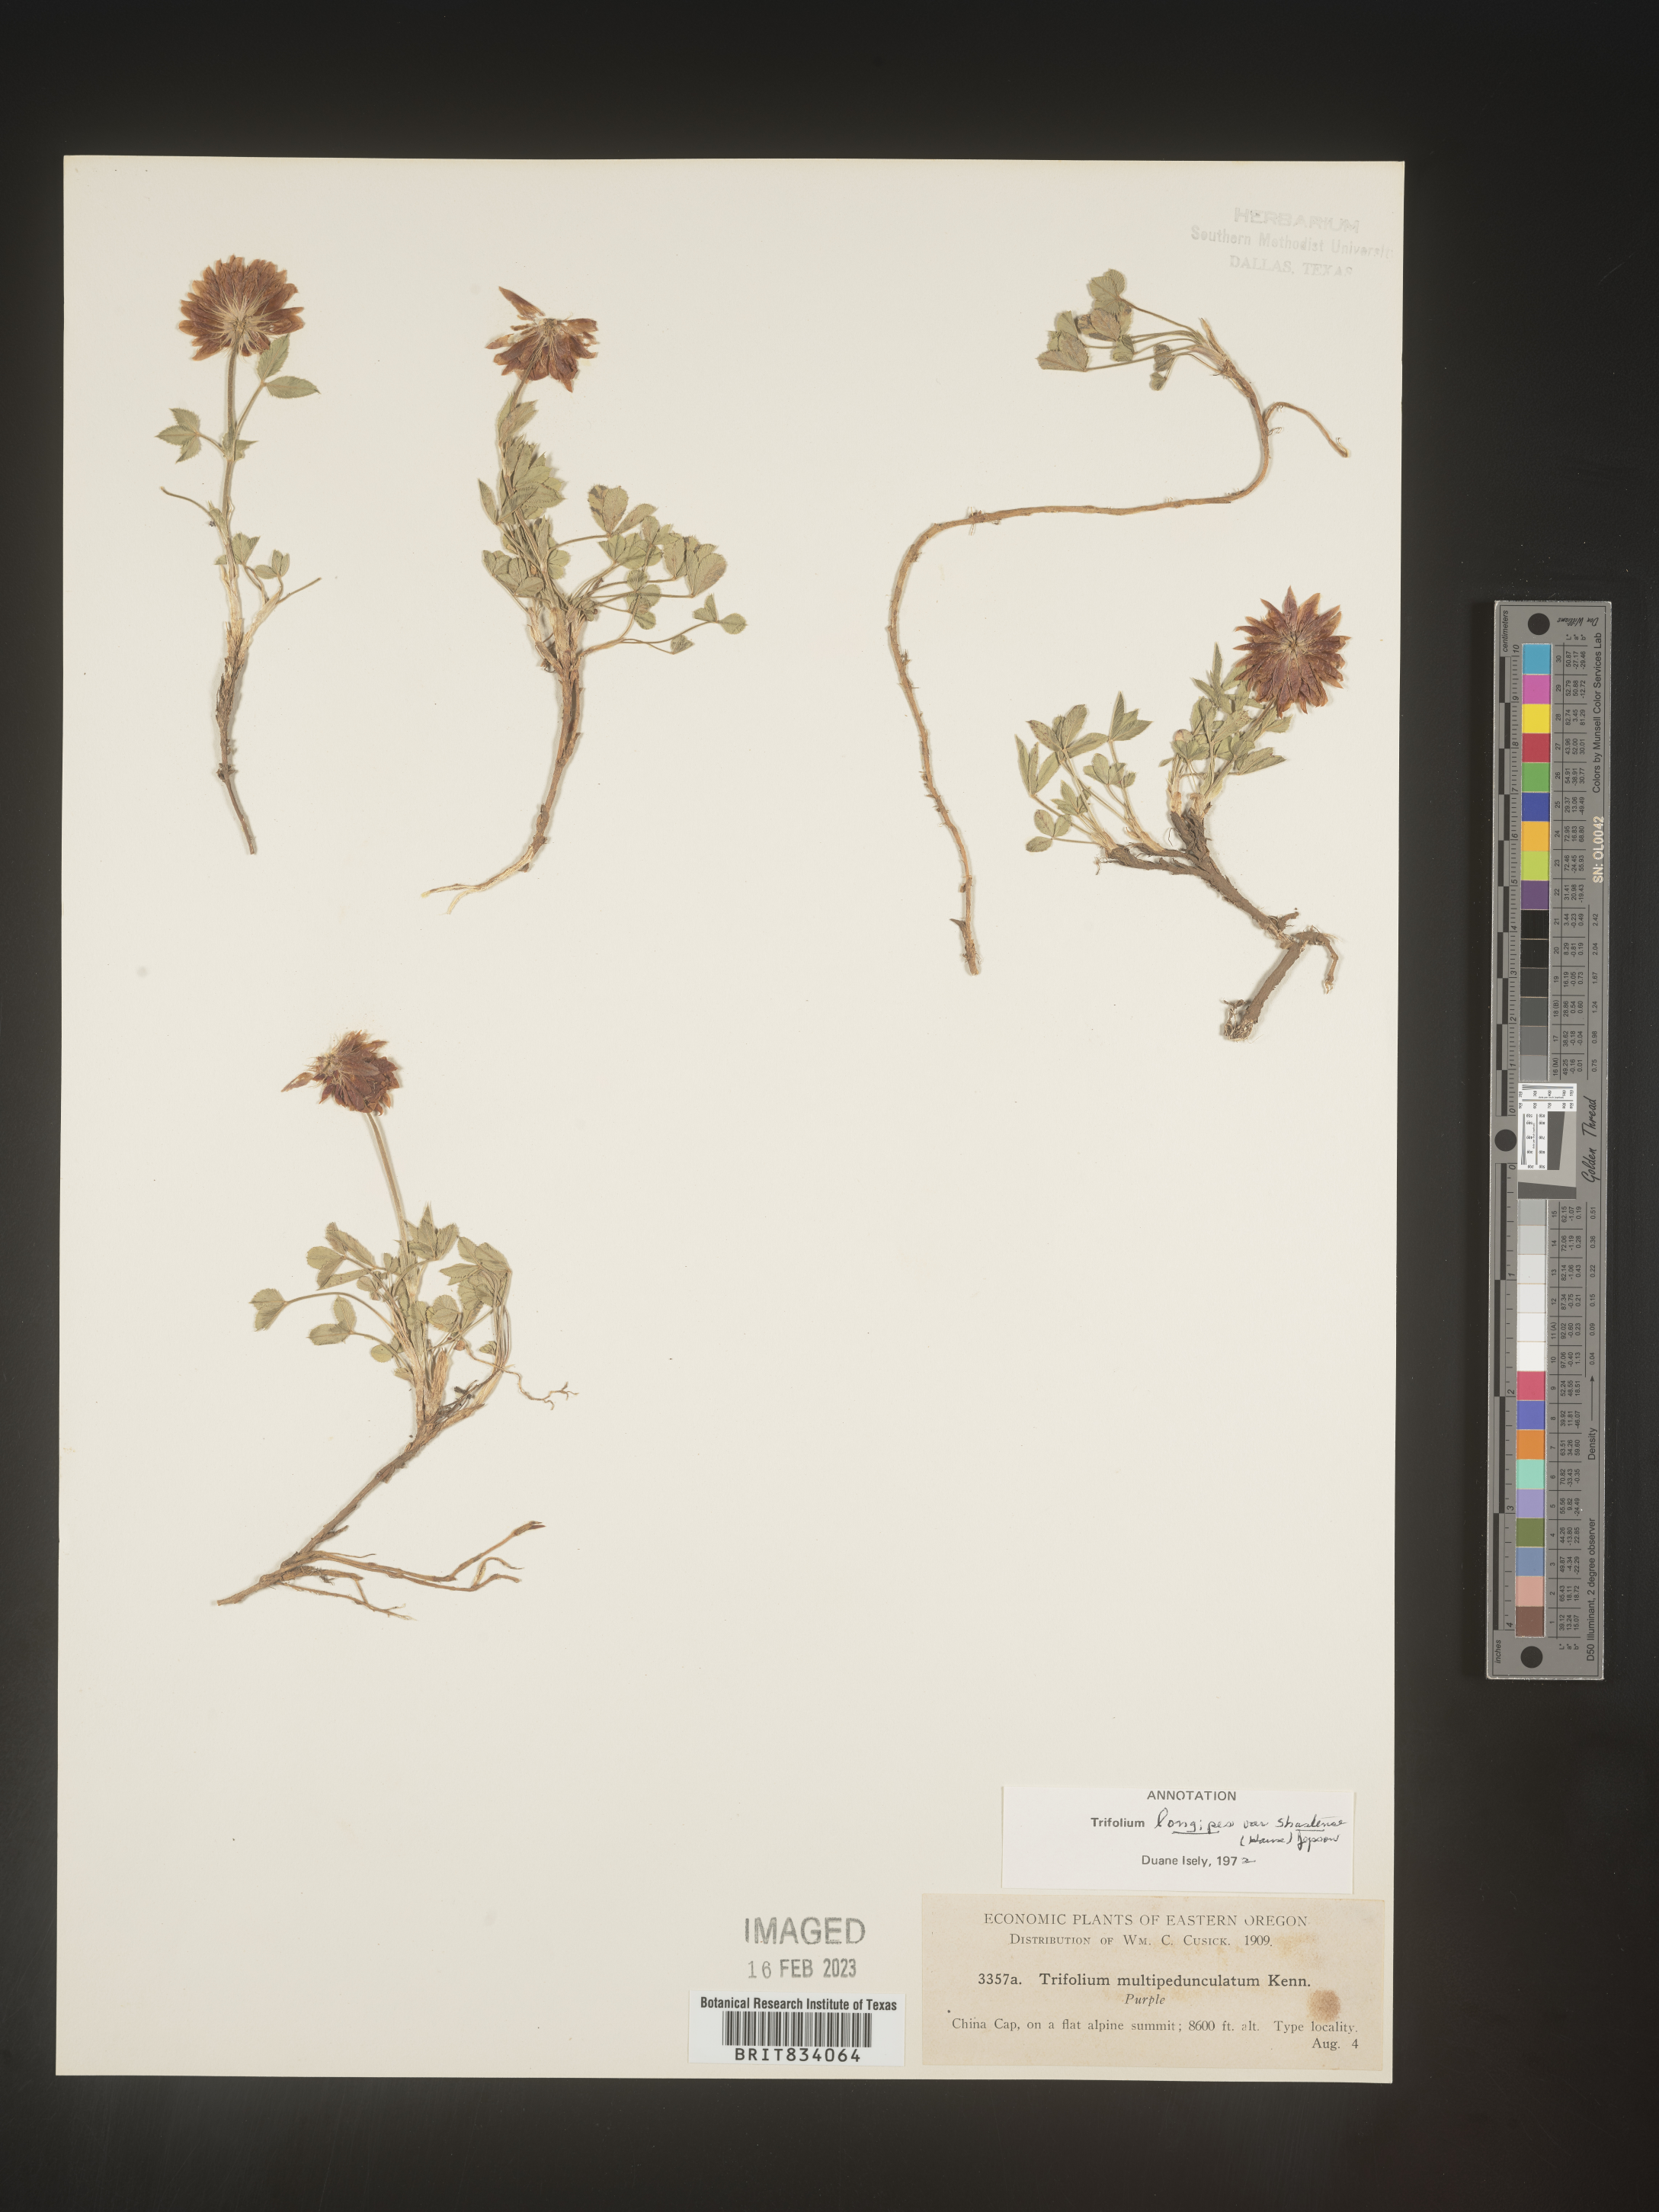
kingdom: Plantae
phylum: Tracheophyta
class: Magnoliopsida
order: Fabales
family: Fabaceae
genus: Trifolium
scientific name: Trifolium
